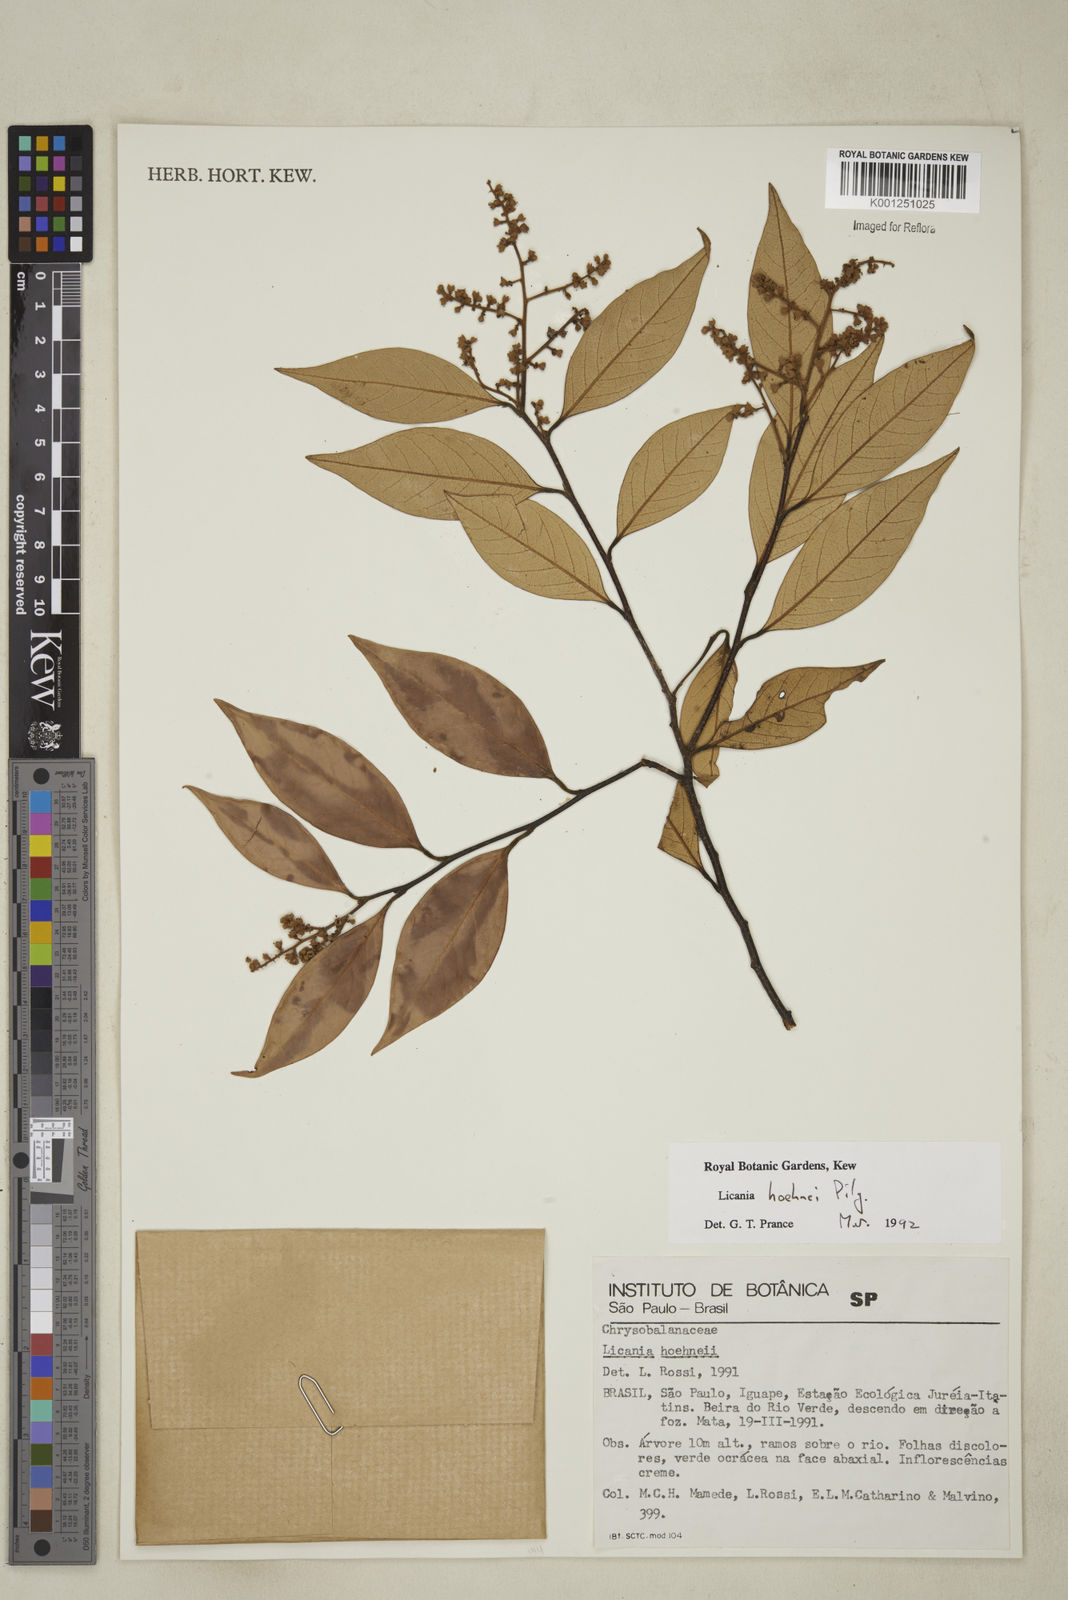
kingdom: Plantae
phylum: Tracheophyta
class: Magnoliopsida
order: Malpighiales
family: Chrysobalanaceae
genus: Licania
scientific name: Licania indurata
